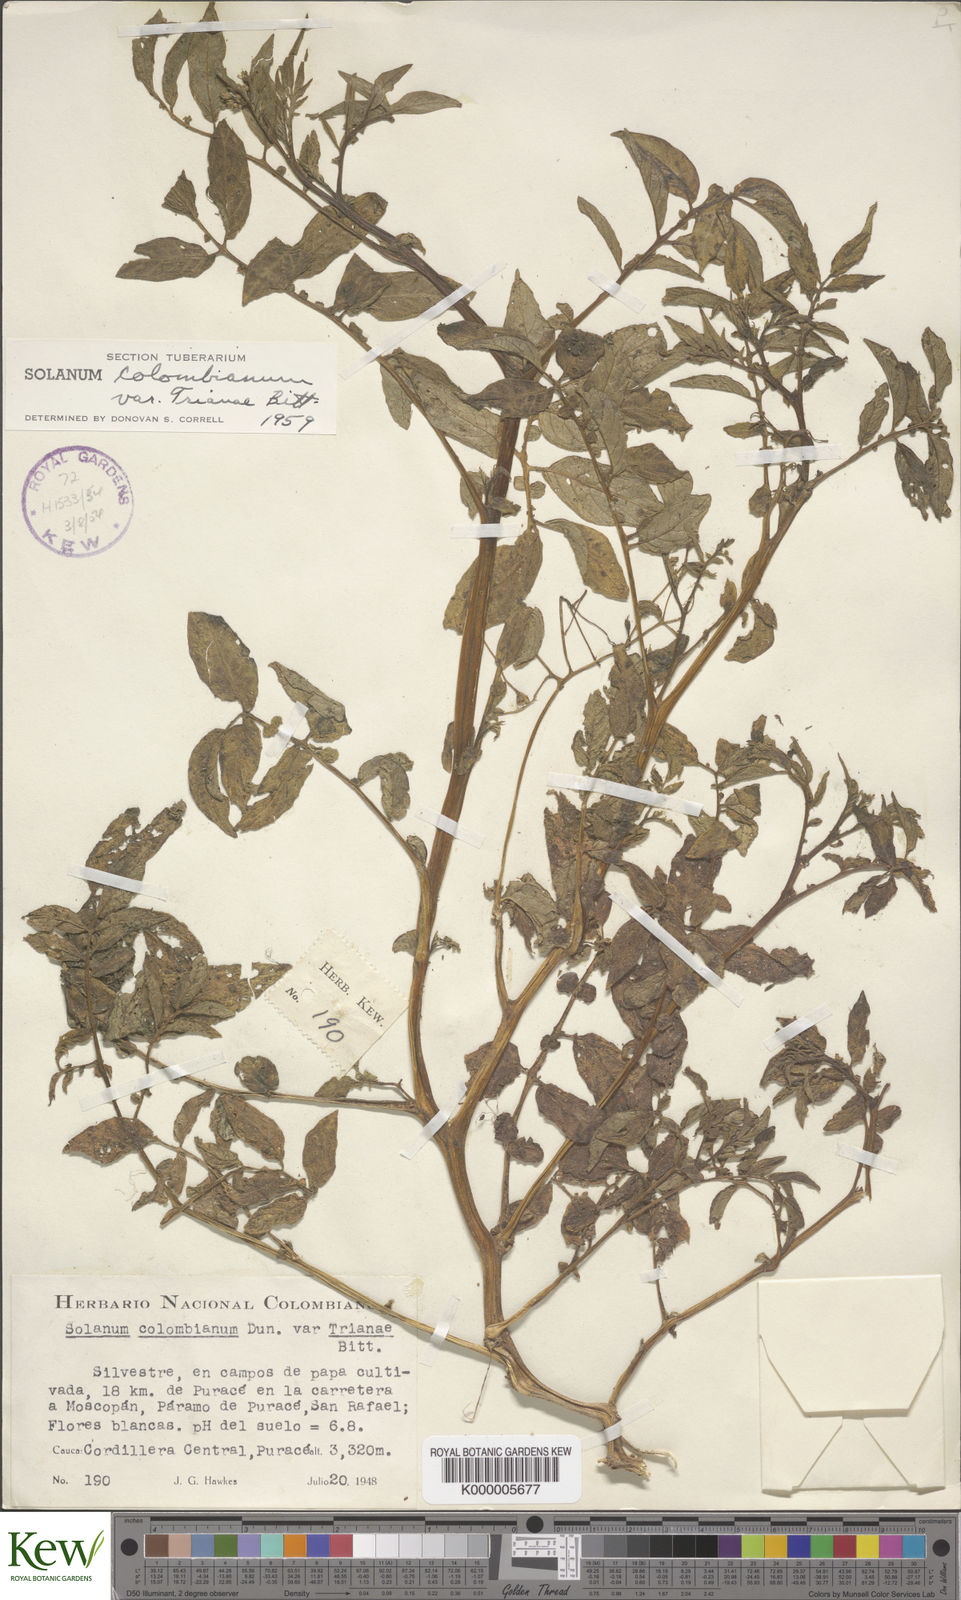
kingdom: Plantae
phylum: Tracheophyta
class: Magnoliopsida
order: Solanales
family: Solanaceae
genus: Solanum
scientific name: Solanum colombianum
